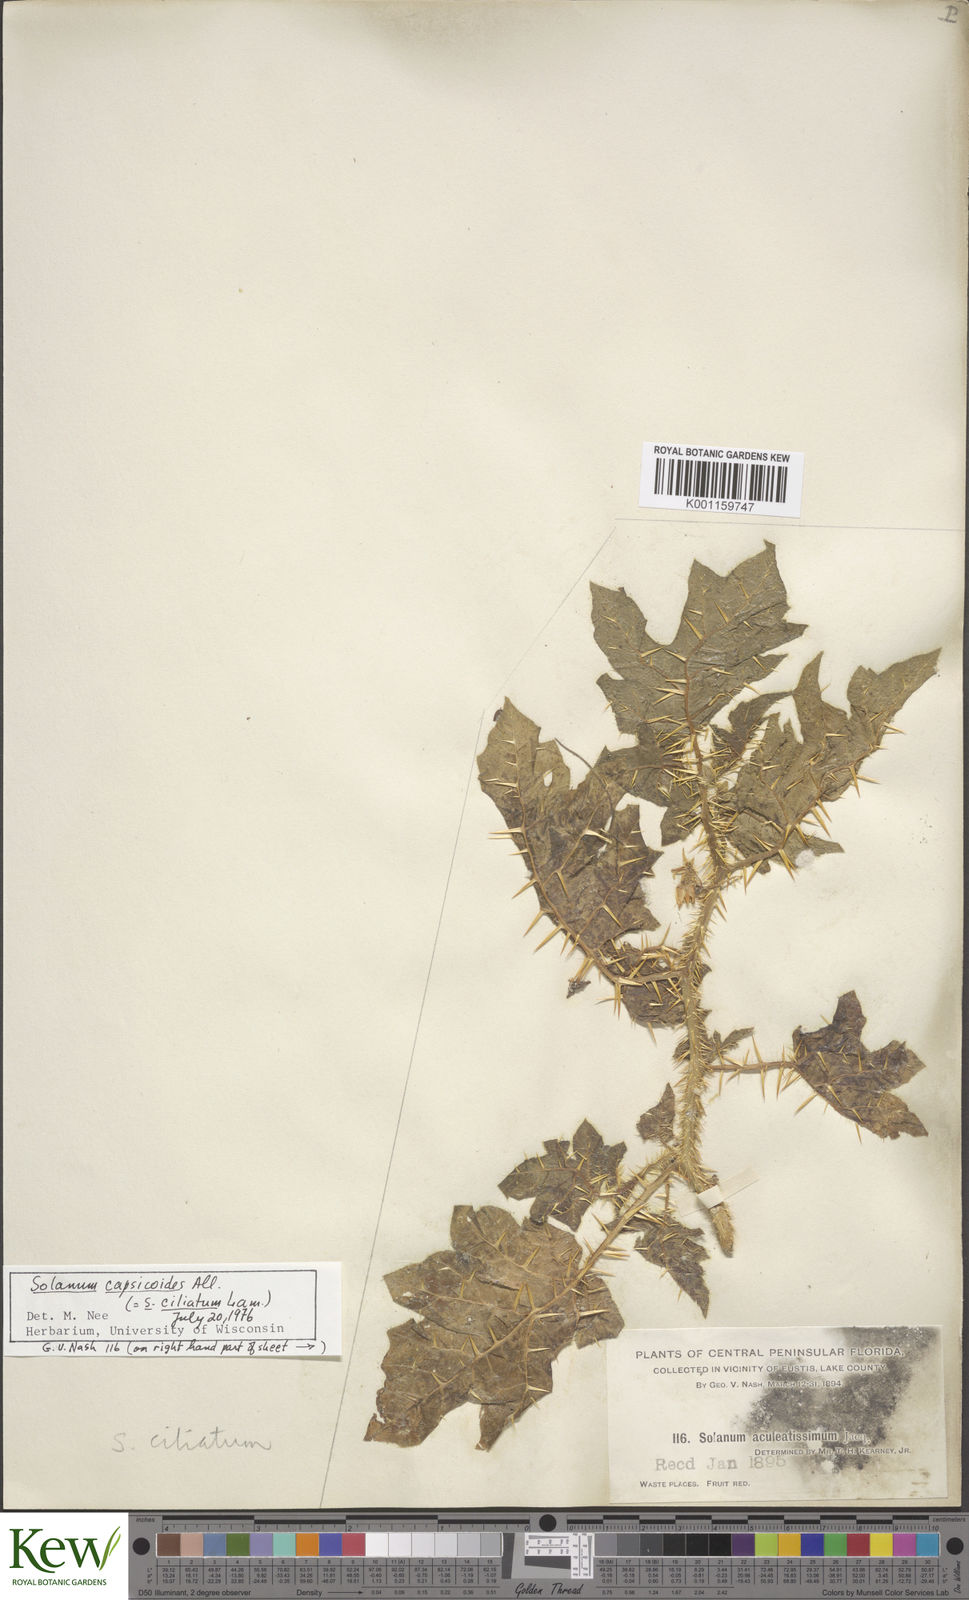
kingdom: Plantae
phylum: Tracheophyta
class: Magnoliopsida
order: Solanales
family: Solanaceae
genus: Solanum
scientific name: Solanum capsicoides
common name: Cockroach berry
